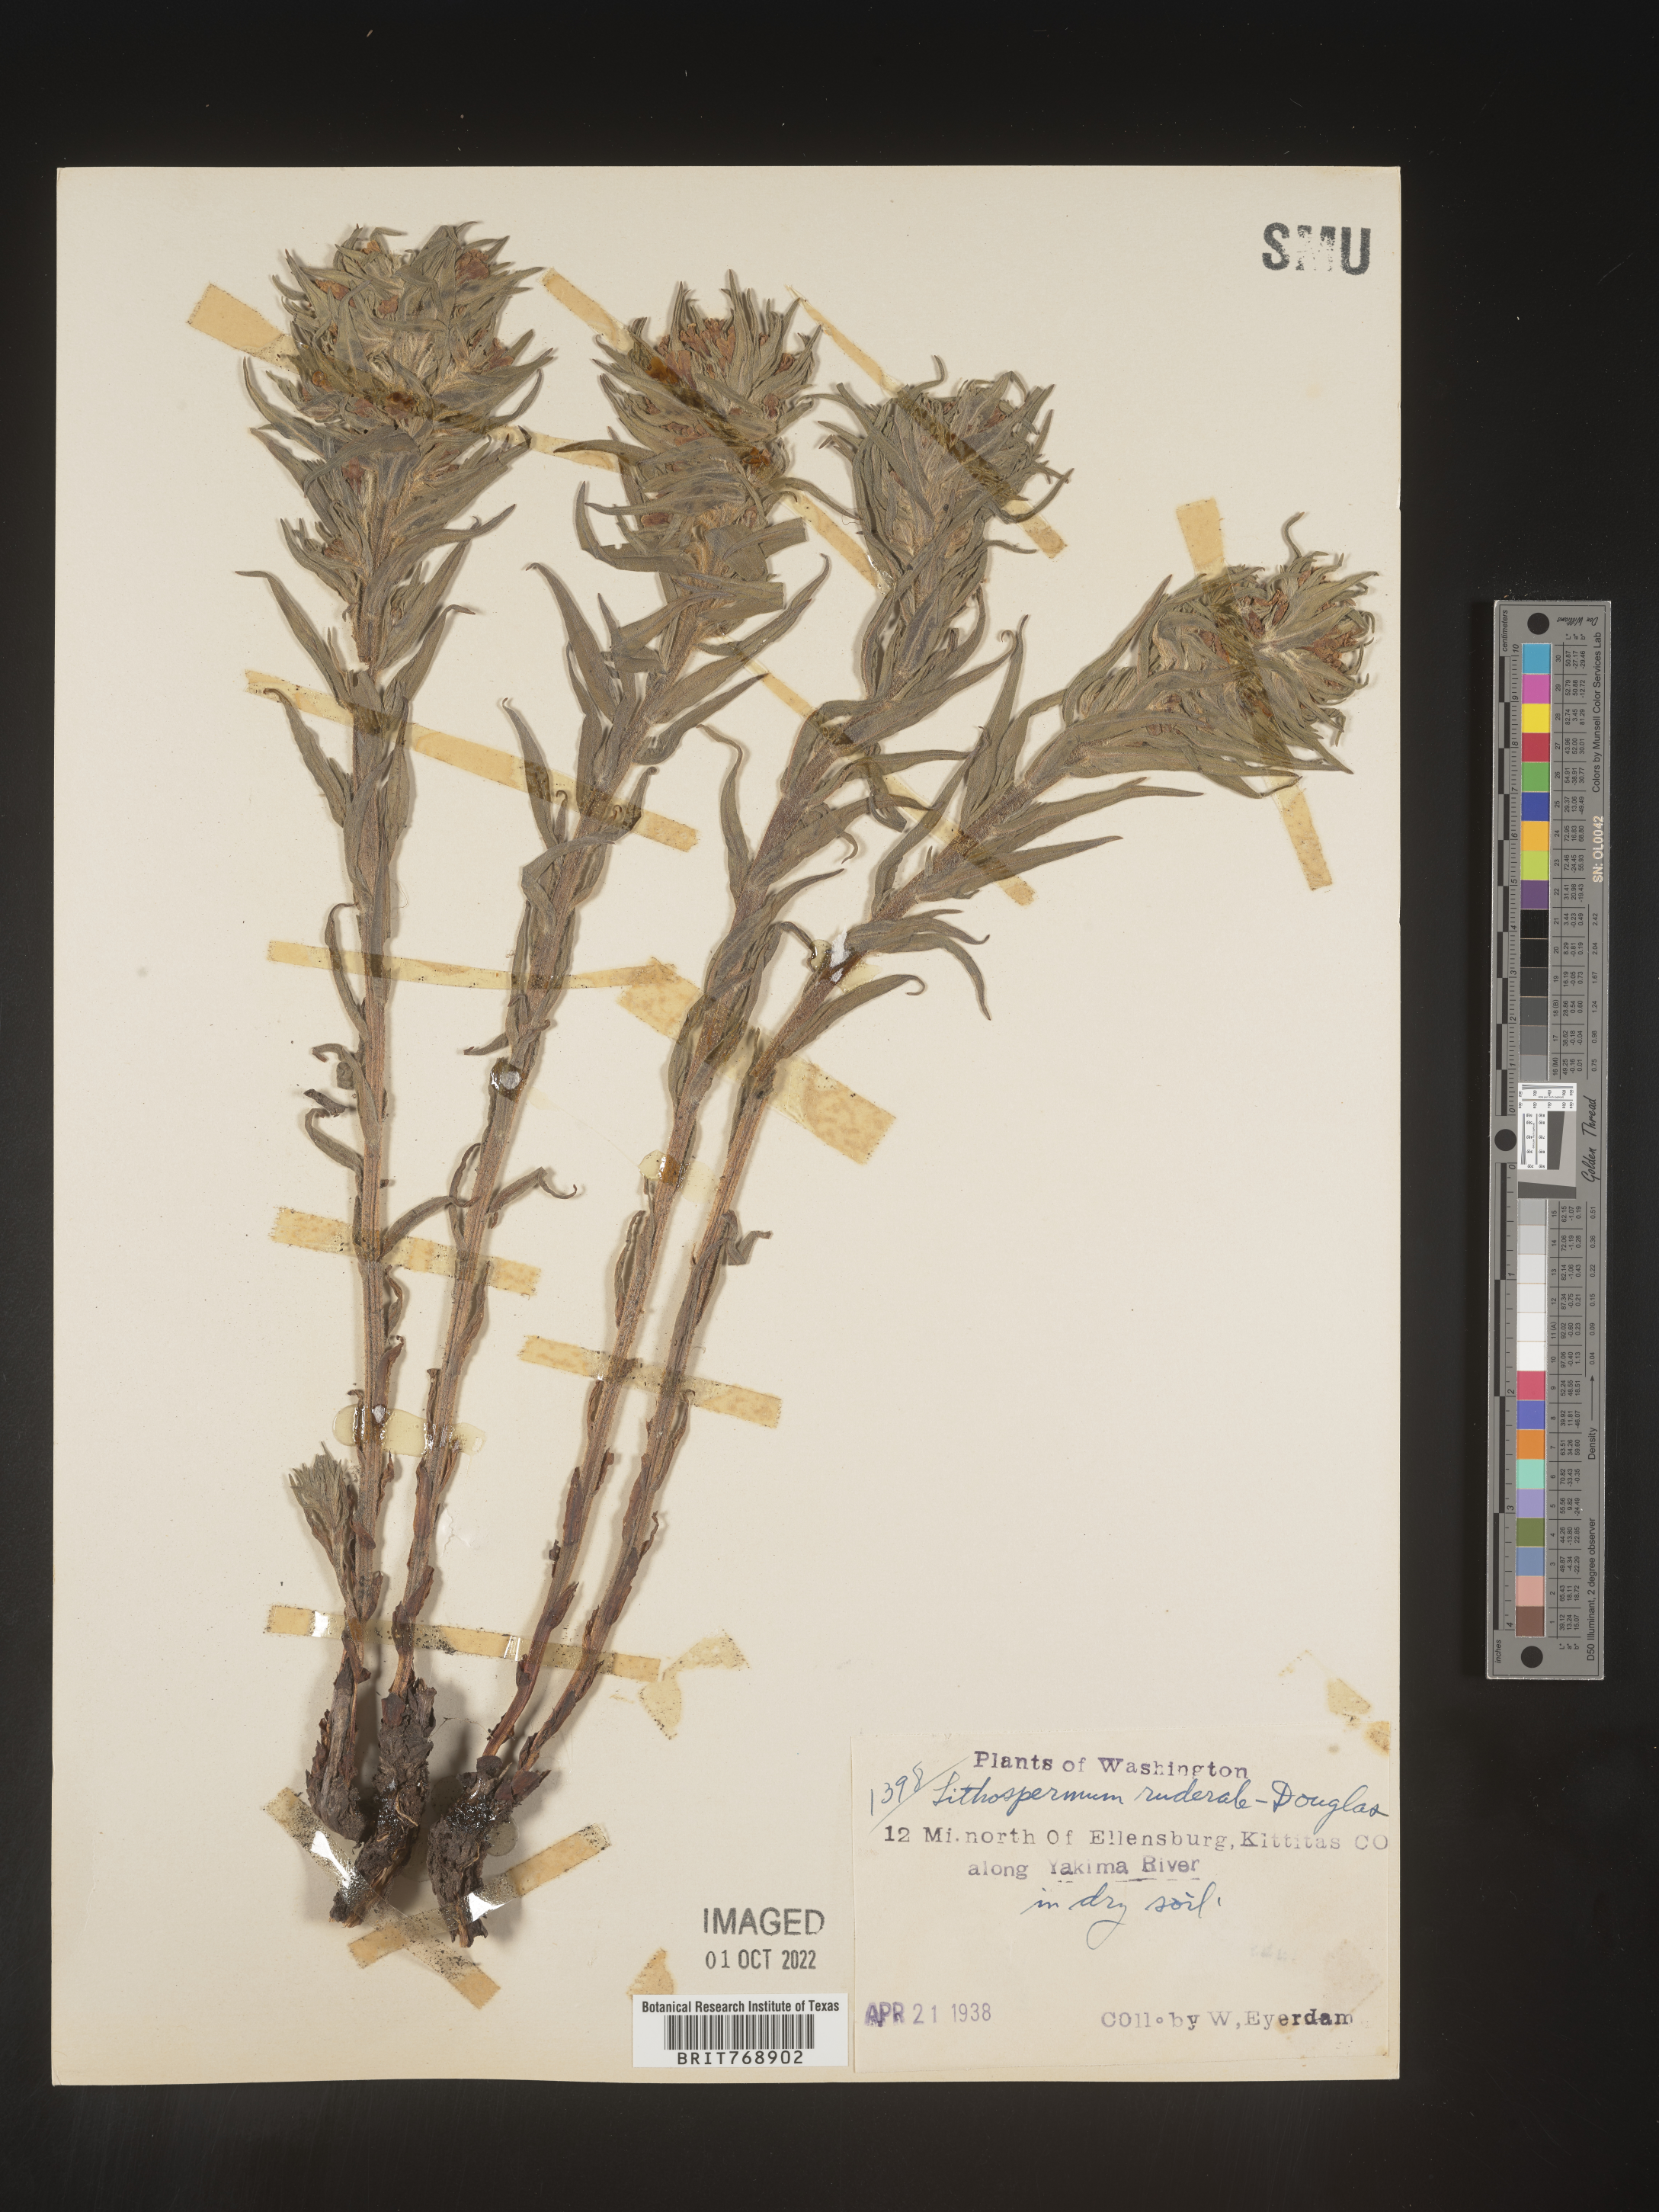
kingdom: Plantae
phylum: Tracheophyta
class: Magnoliopsida
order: Boraginales
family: Boraginaceae
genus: Lithospermum
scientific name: Lithospermum
